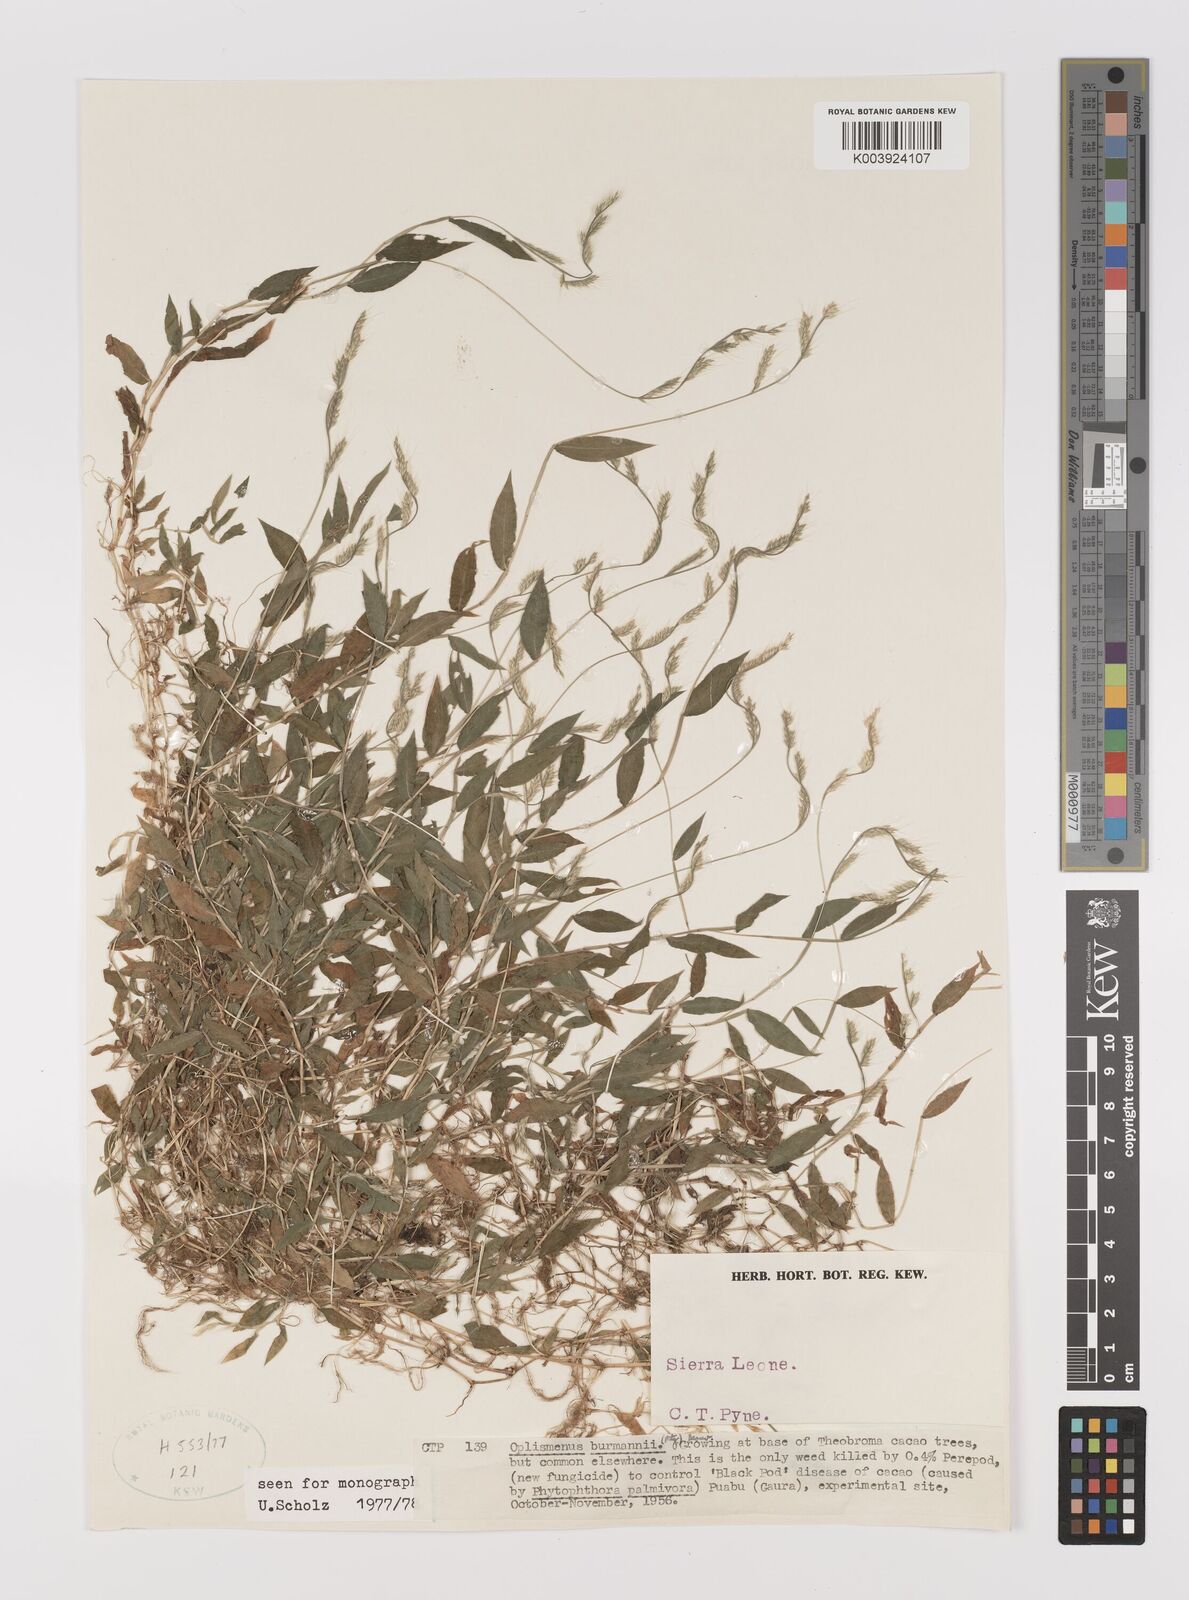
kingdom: Plantae
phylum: Tracheophyta
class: Liliopsida
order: Poales
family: Poaceae
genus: Oplismenus
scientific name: Oplismenus burmanni
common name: Burmann's basketgrass
